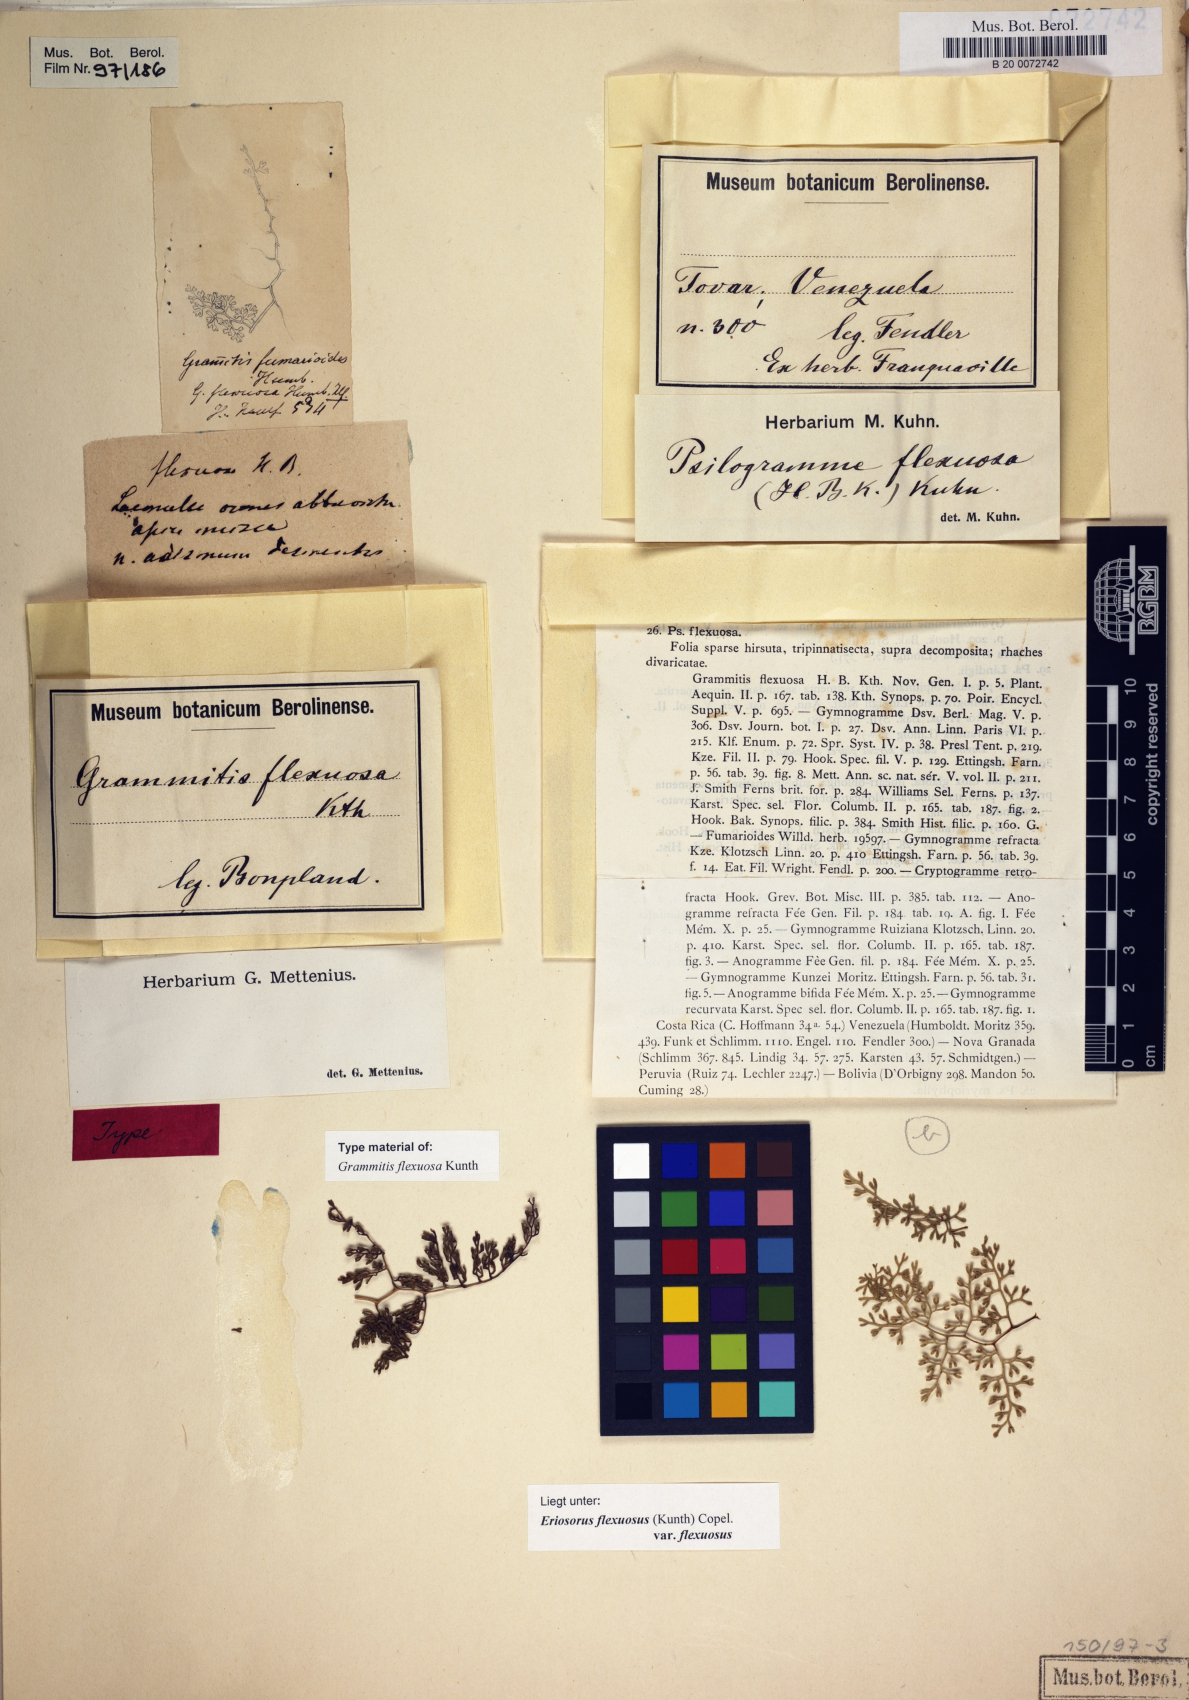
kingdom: Plantae
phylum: Tracheophyta
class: Polypodiopsida
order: Polypodiales
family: Pteridaceae
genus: Jamesonia
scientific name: Jamesonia flexuosa
